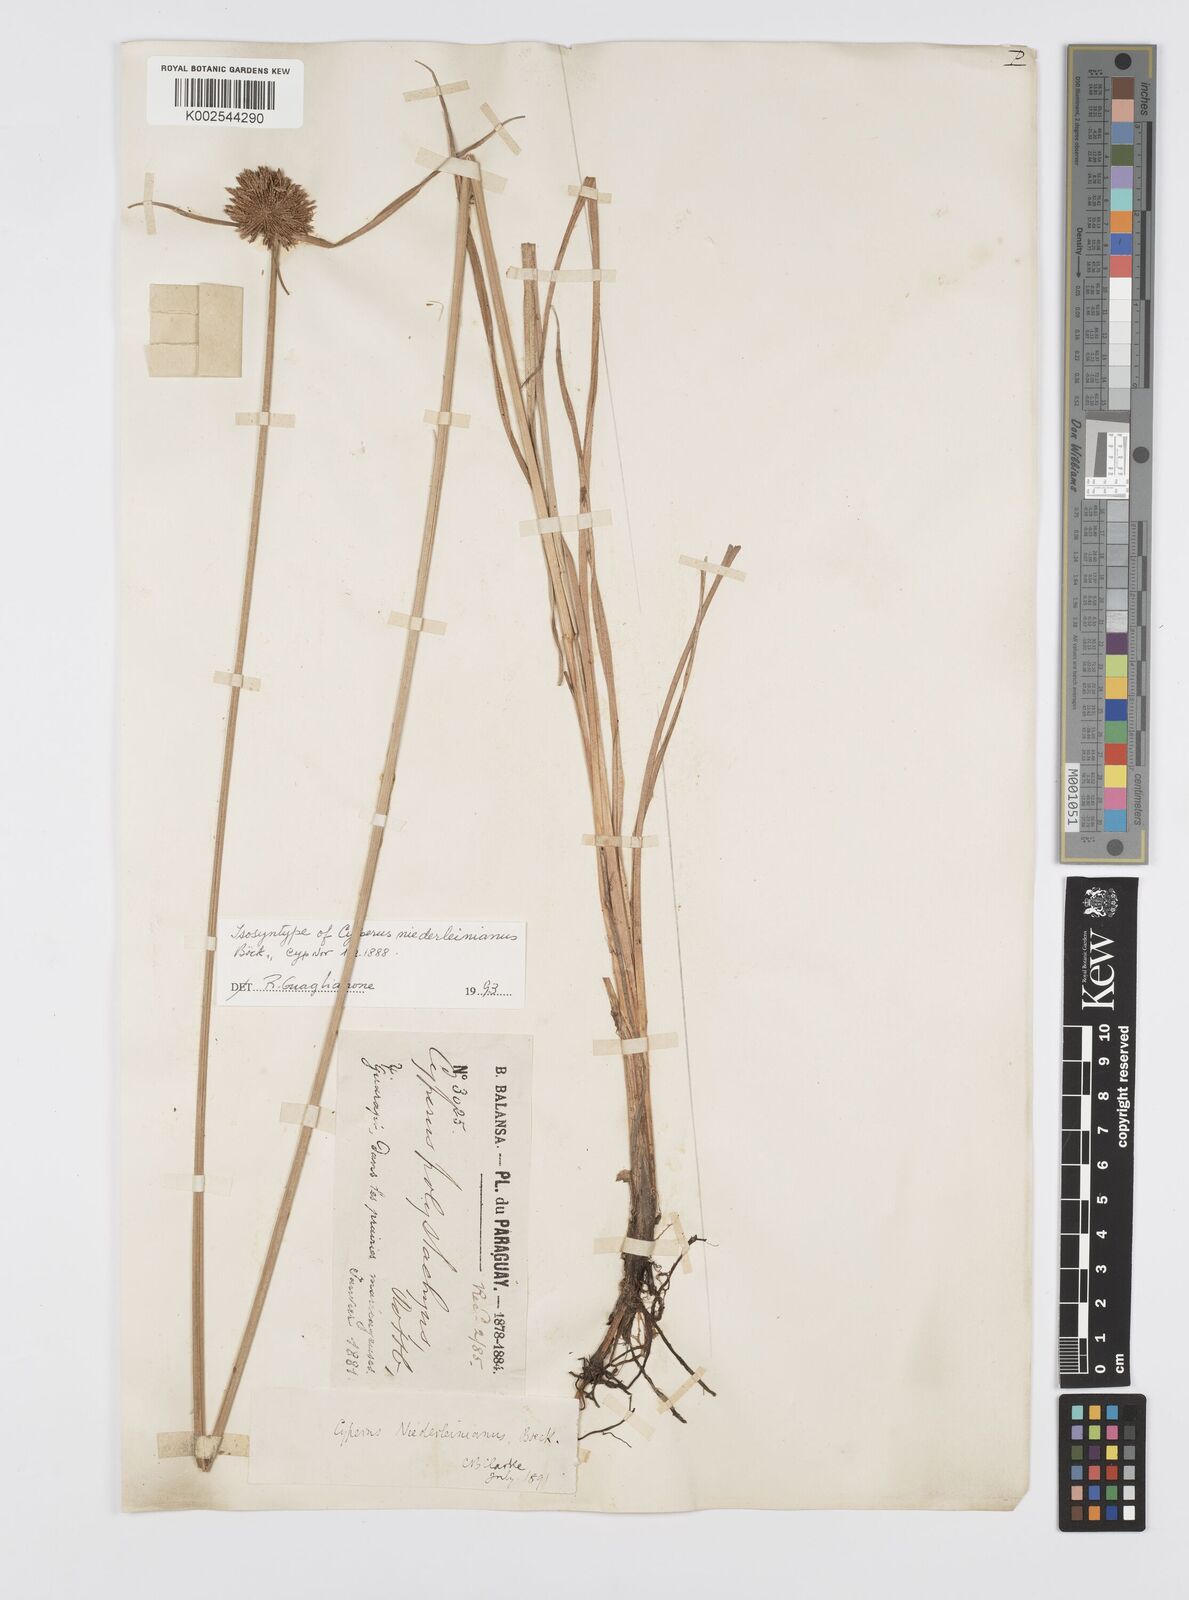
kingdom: Plantae
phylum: Tracheophyta
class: Liliopsida
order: Poales
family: Cyperaceae
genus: Cyperus
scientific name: Cyperus niederleinianus
